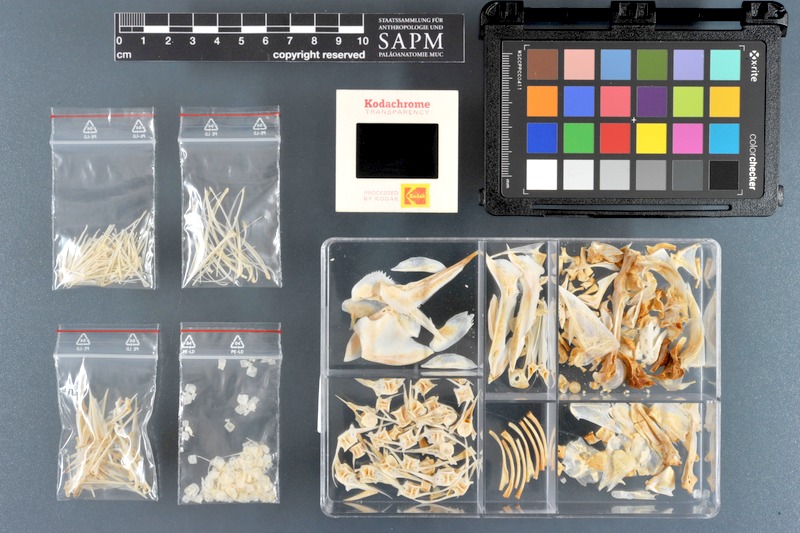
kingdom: Animalia
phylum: Chordata
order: Perciformes
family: Haemulidae
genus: Diagramma
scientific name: Diagramma pictum
